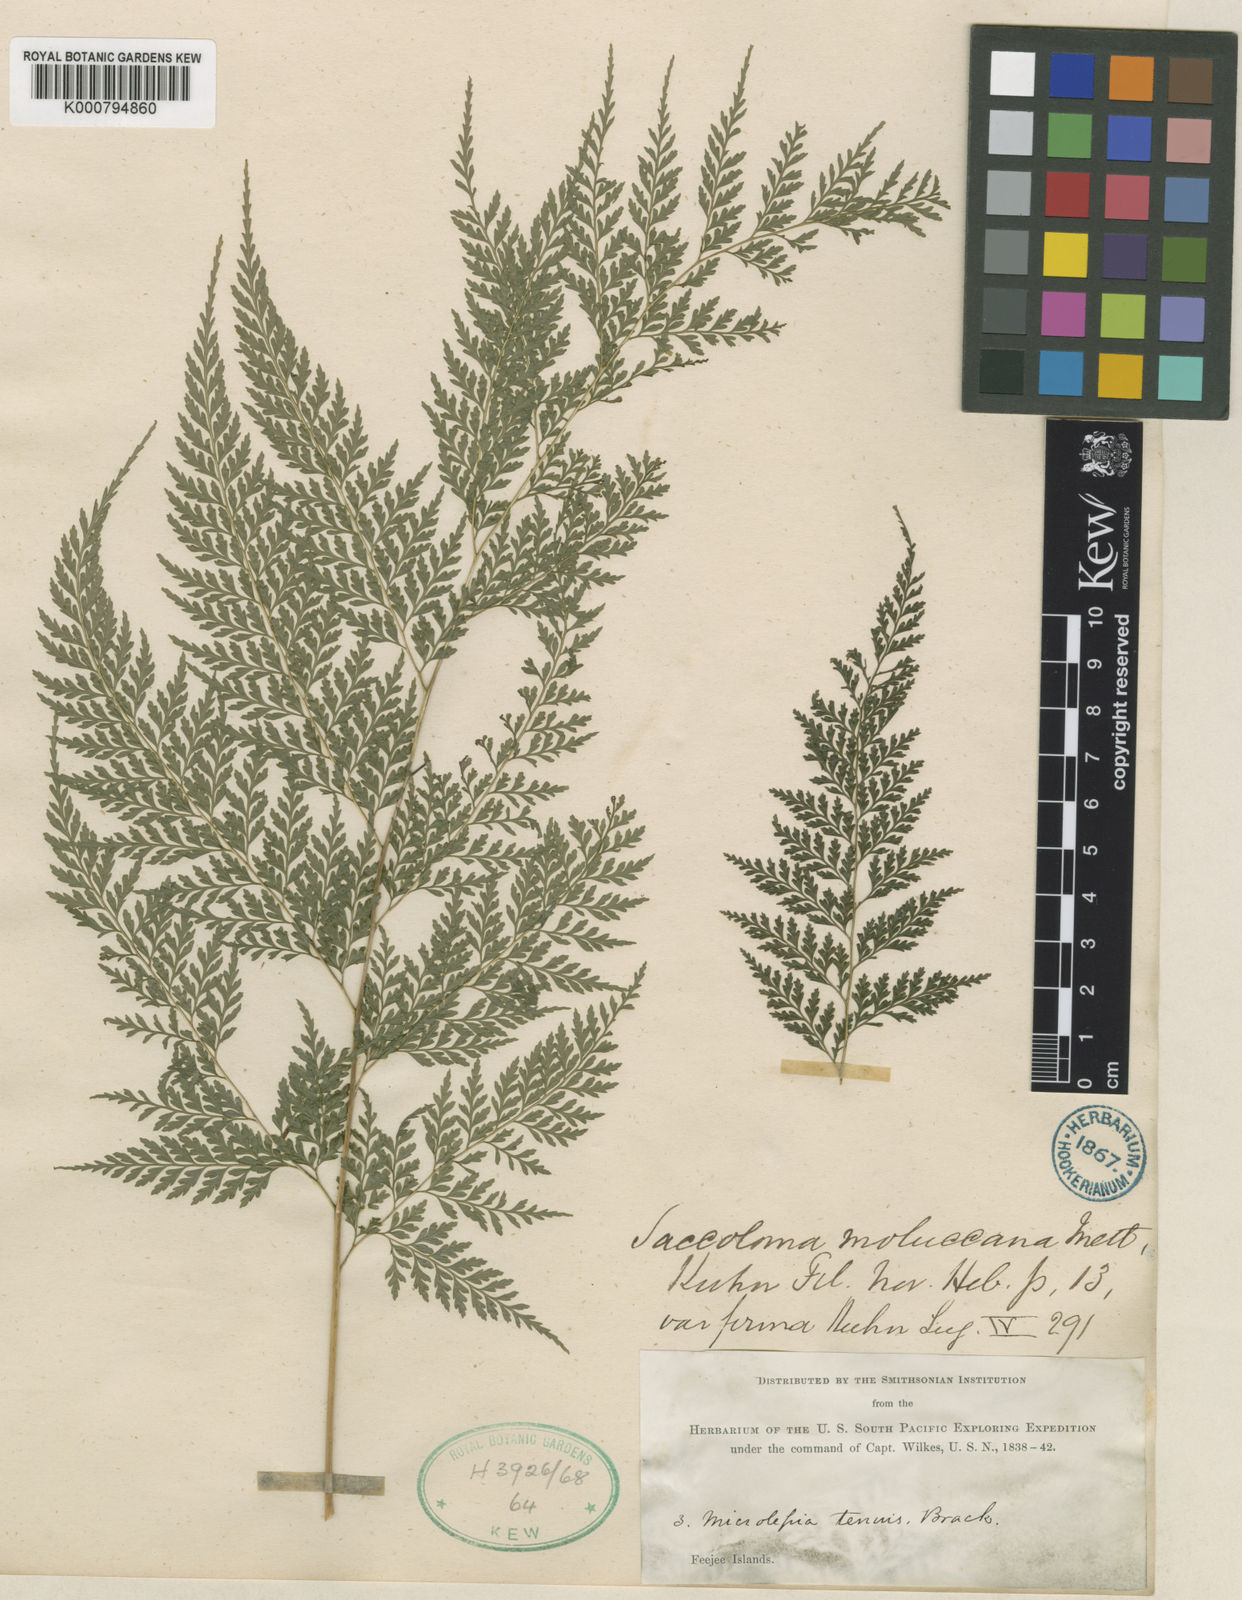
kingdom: Plantae
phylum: Tracheophyta
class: Polypodiopsida
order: Polypodiales
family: Saccolomataceae
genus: Orthiopteris
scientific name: Orthiopteris campylura
